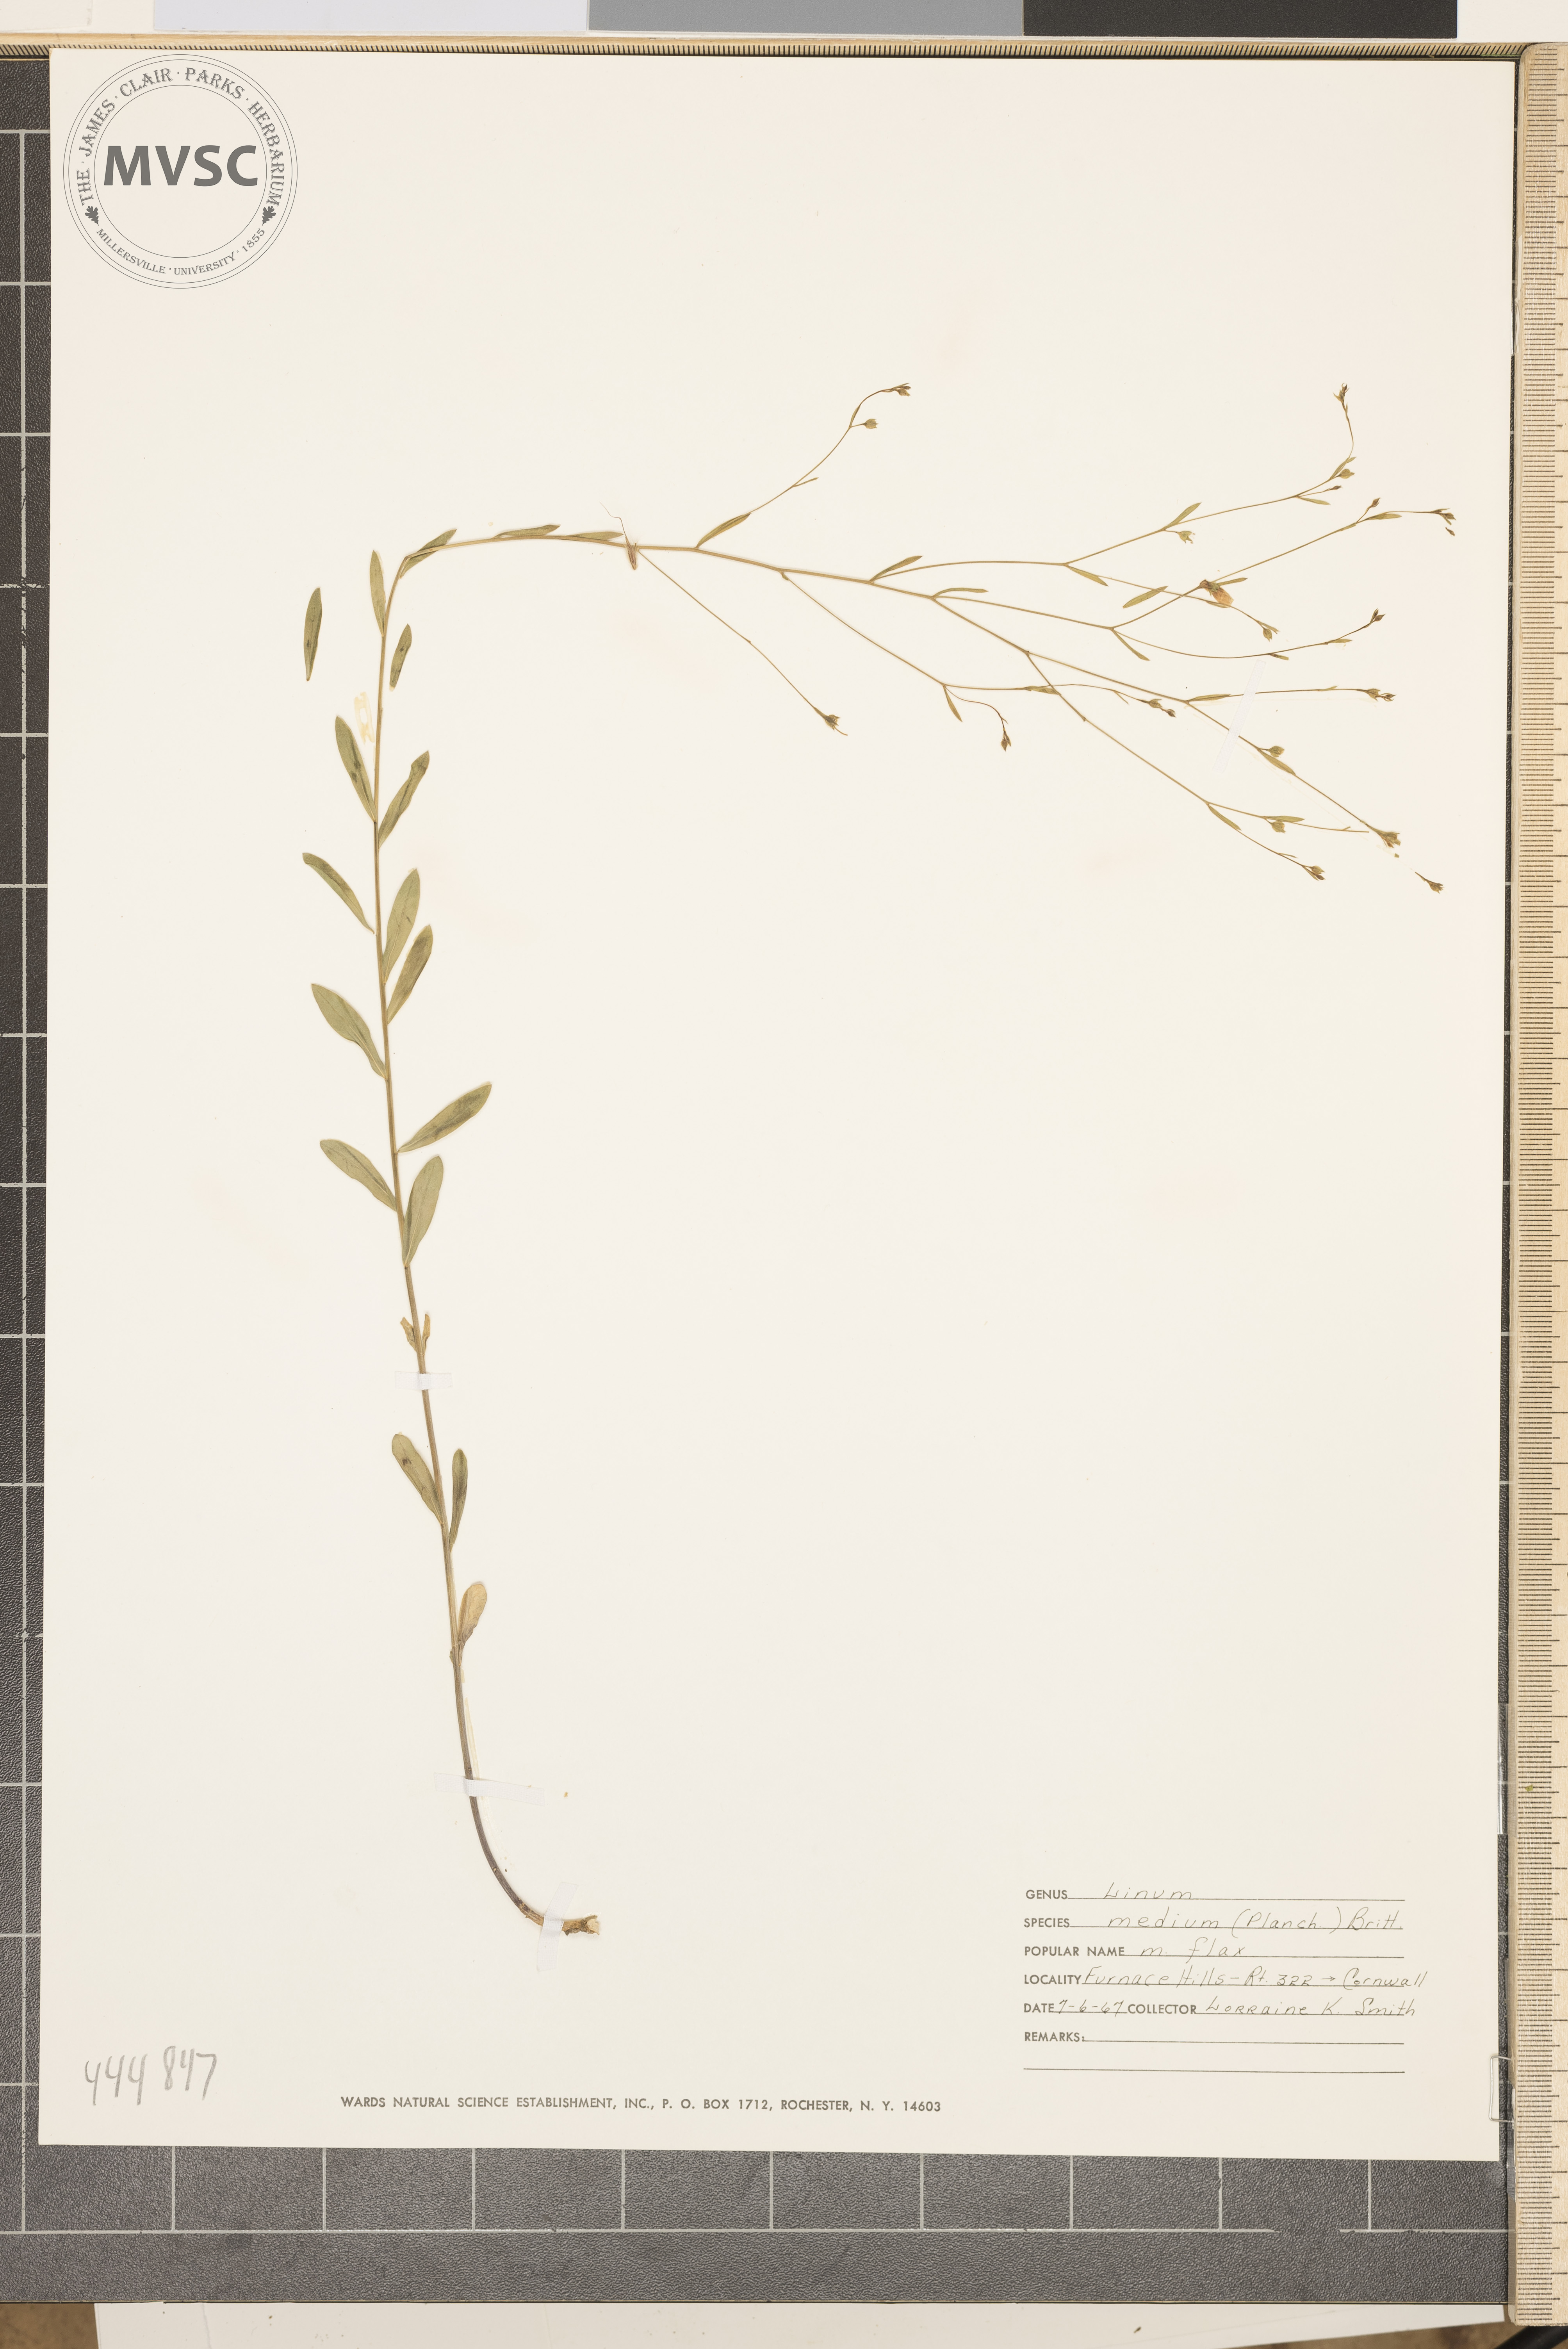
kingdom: Plantae
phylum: Tracheophyta
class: Magnoliopsida
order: Malpighiales
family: Linaceae
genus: Linum
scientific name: Linum medium
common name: Stiff yellow flax
